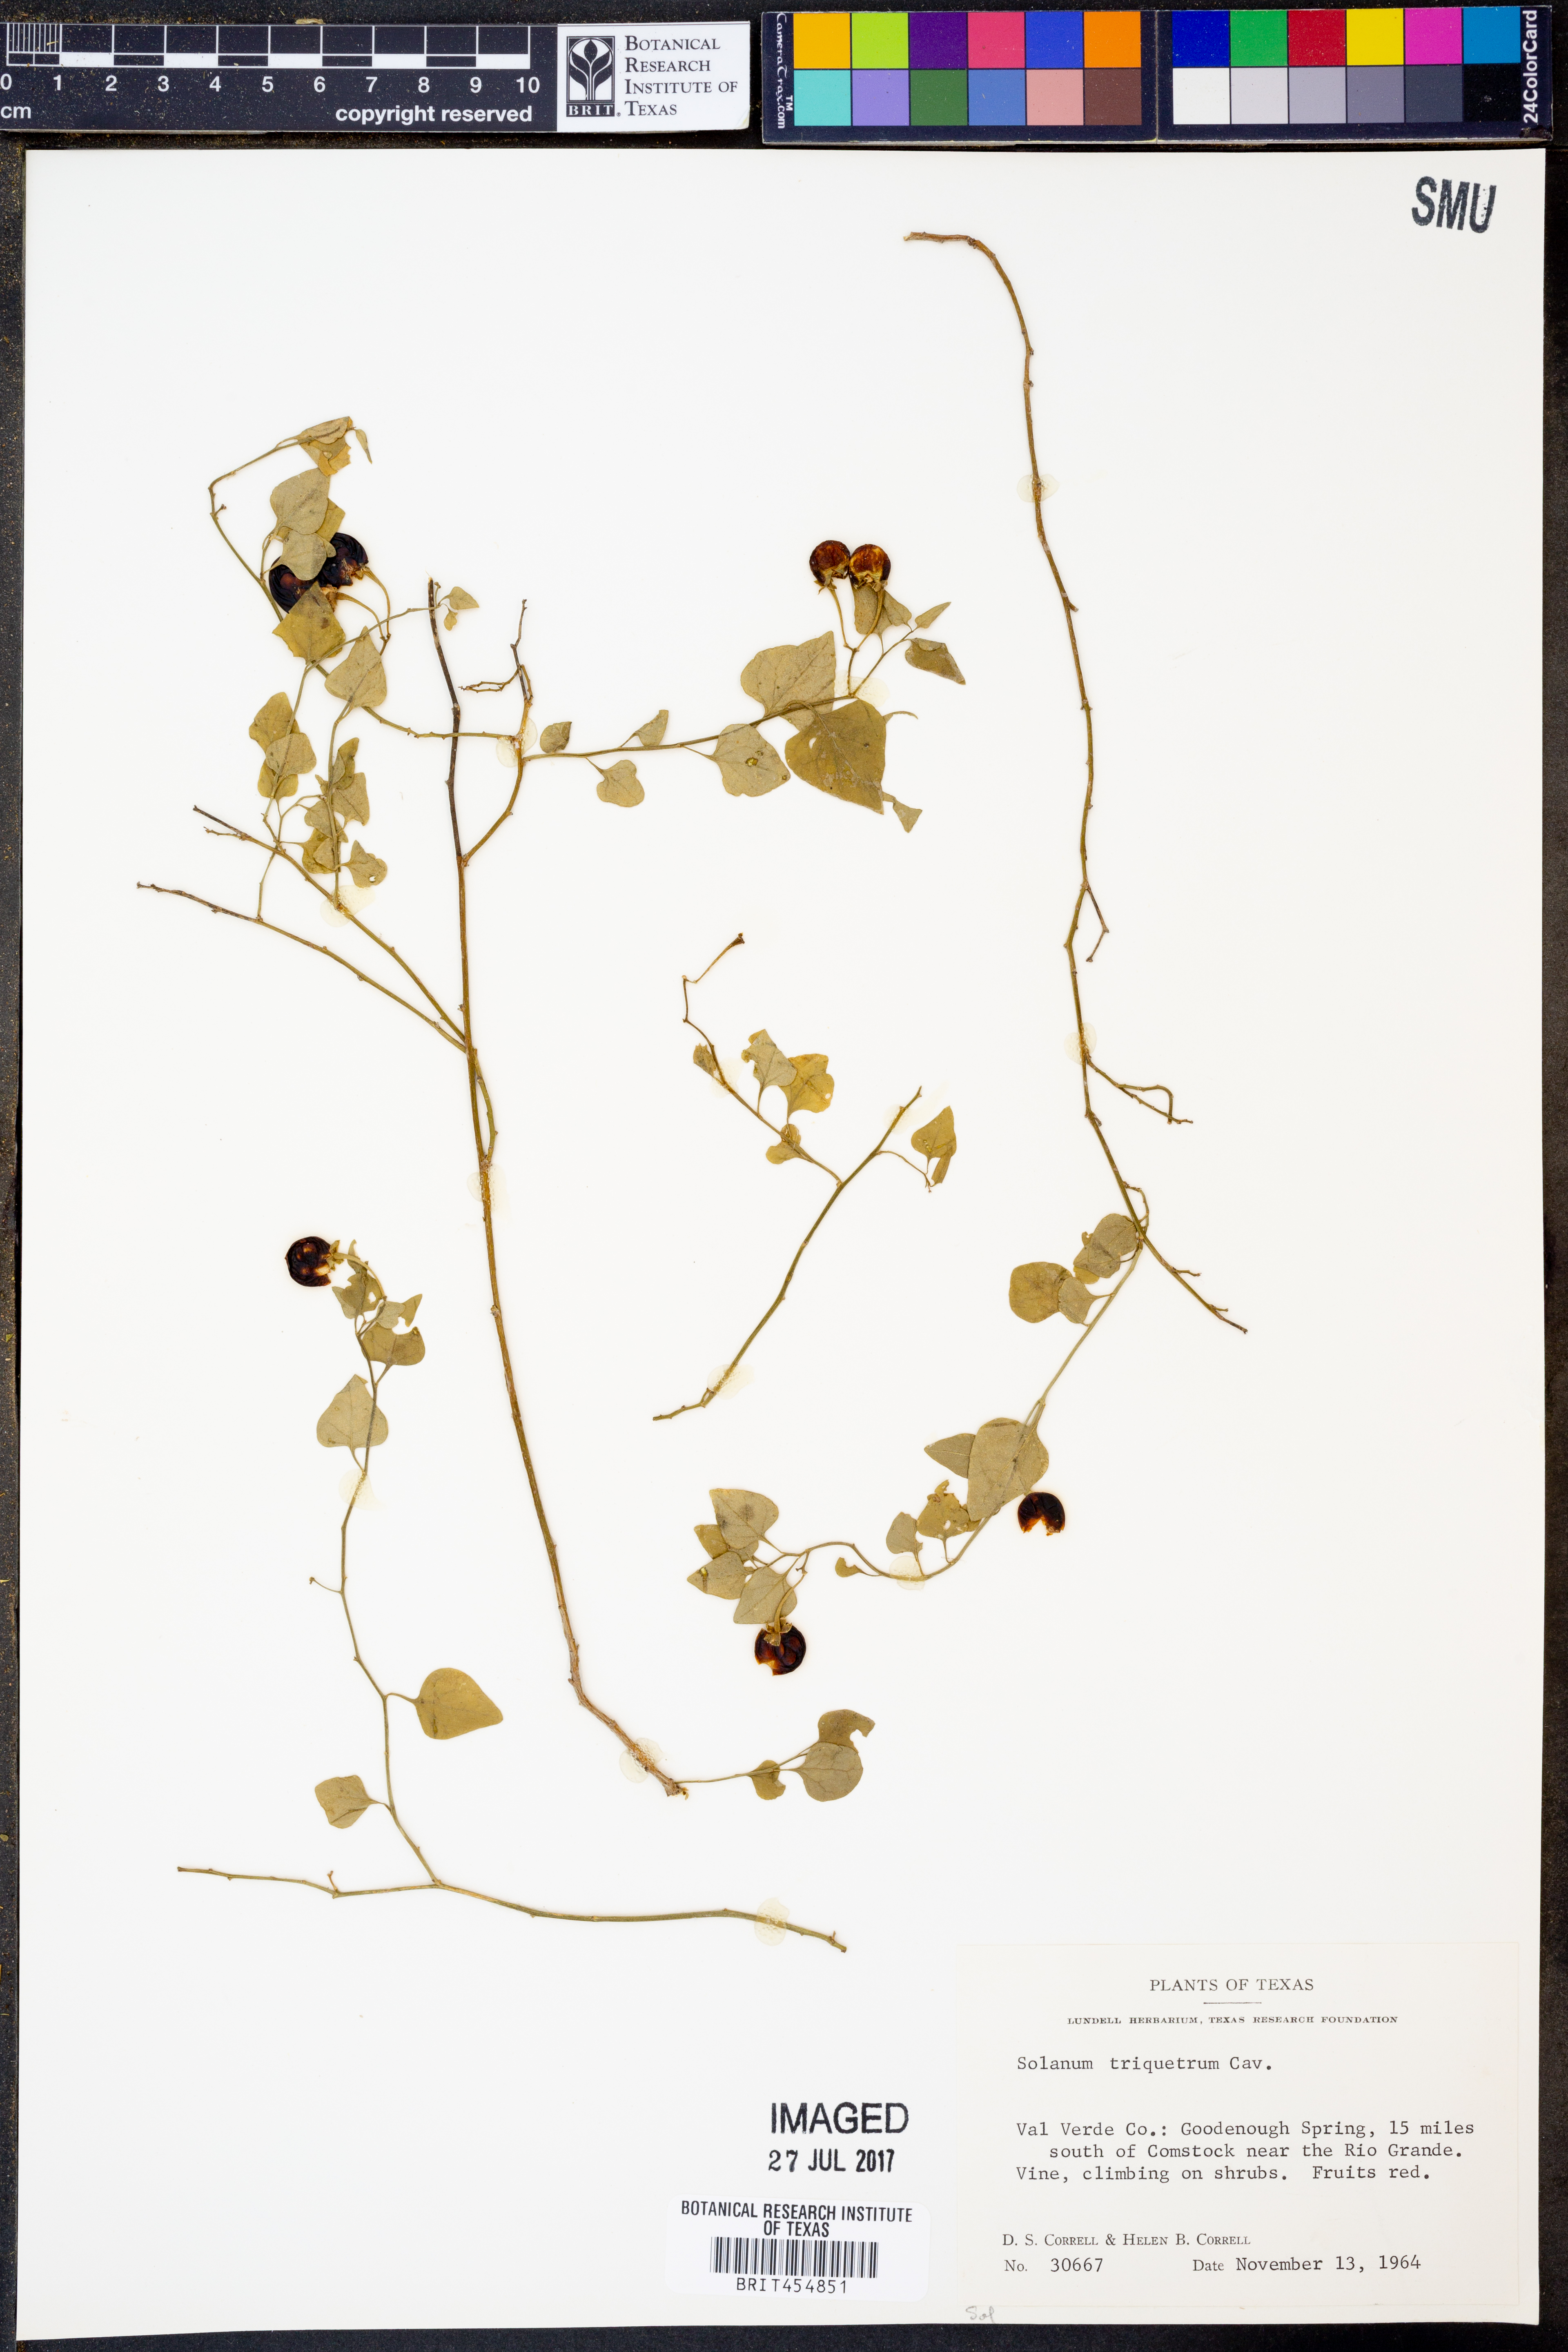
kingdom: Plantae
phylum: Tracheophyta
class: Magnoliopsida
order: Solanales
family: Solanaceae
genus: Solanum
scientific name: Solanum triquetrum
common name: Texas nightshade
